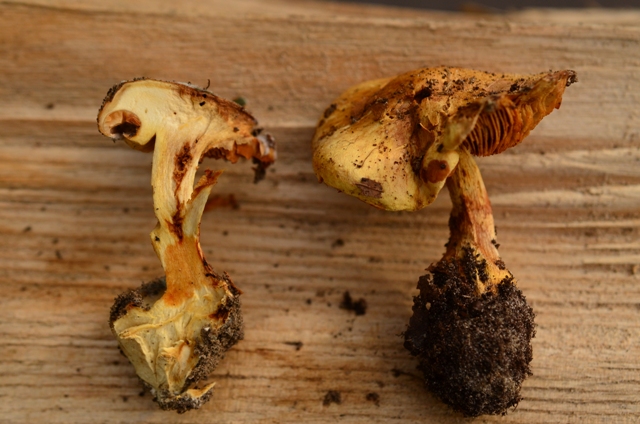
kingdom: Fungi
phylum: Basidiomycota
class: Agaricomycetes
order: Agaricales
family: Cortinariaceae
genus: Phlegmacium
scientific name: Phlegmacium caesiocortinatum
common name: rundsporet slørhat
